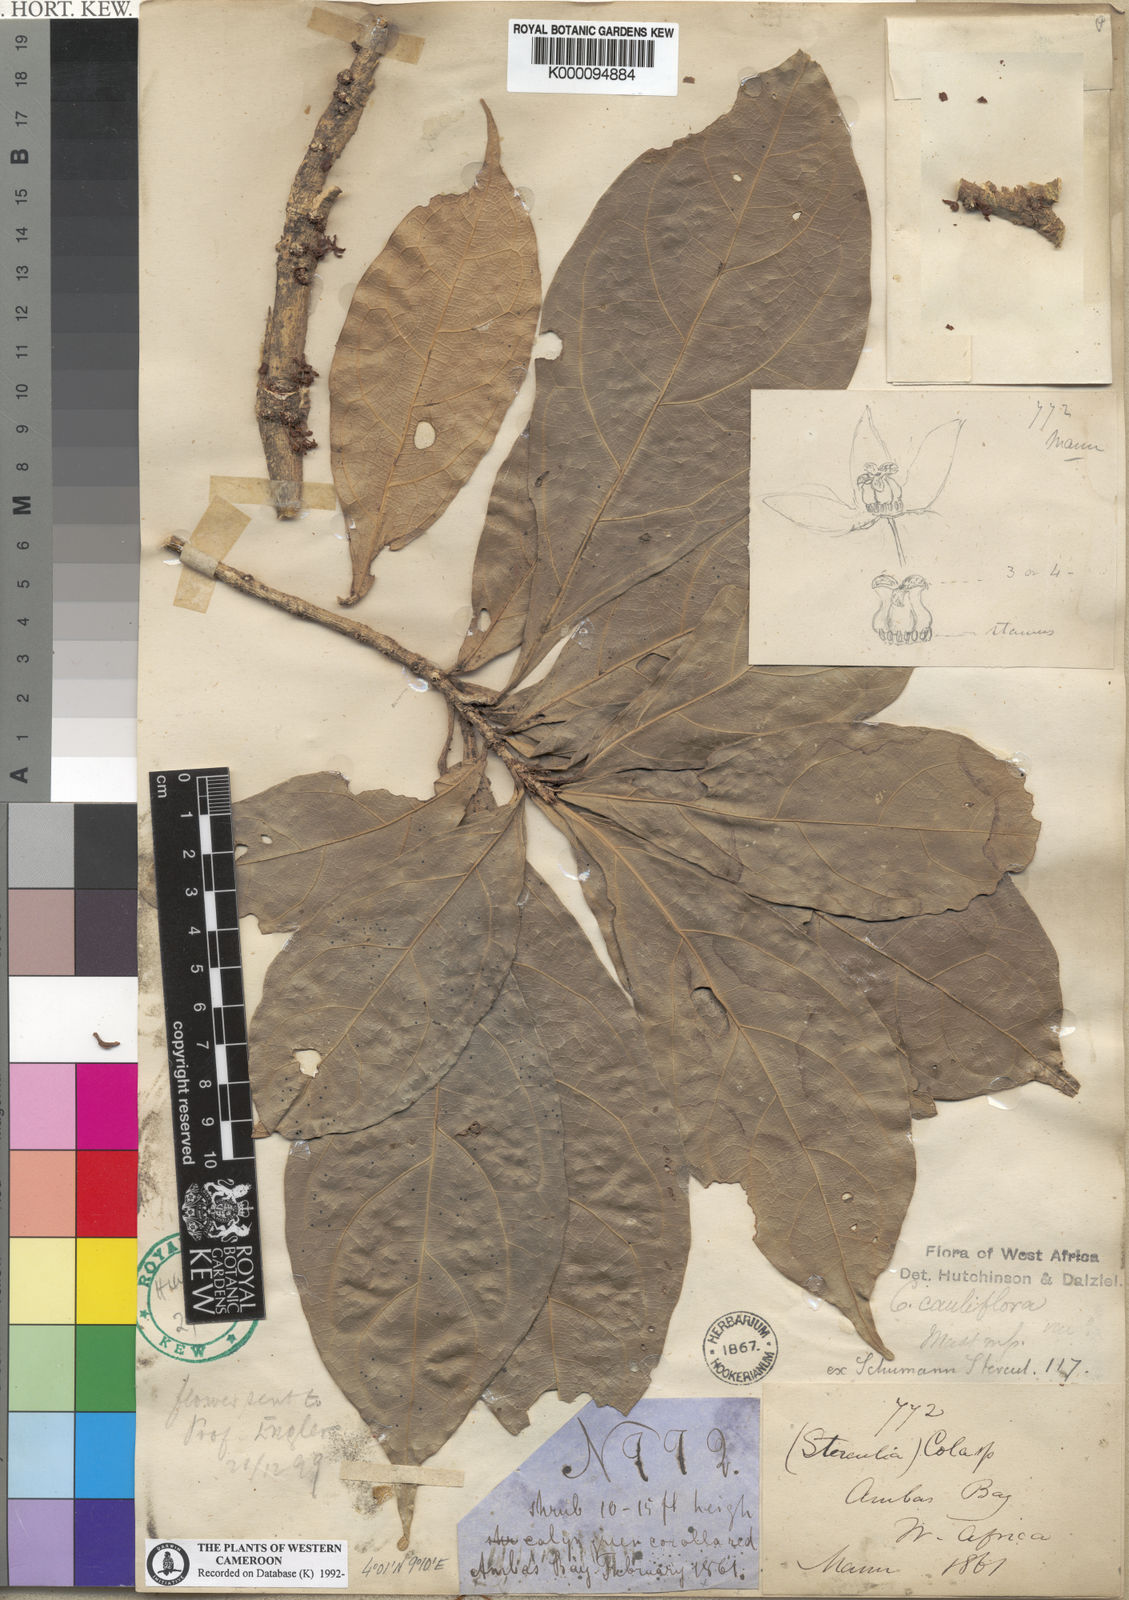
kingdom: Plantae
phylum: Tracheophyta
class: Magnoliopsida
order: Malvales
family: Malvaceae
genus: Cola
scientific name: Cola cauliflora
